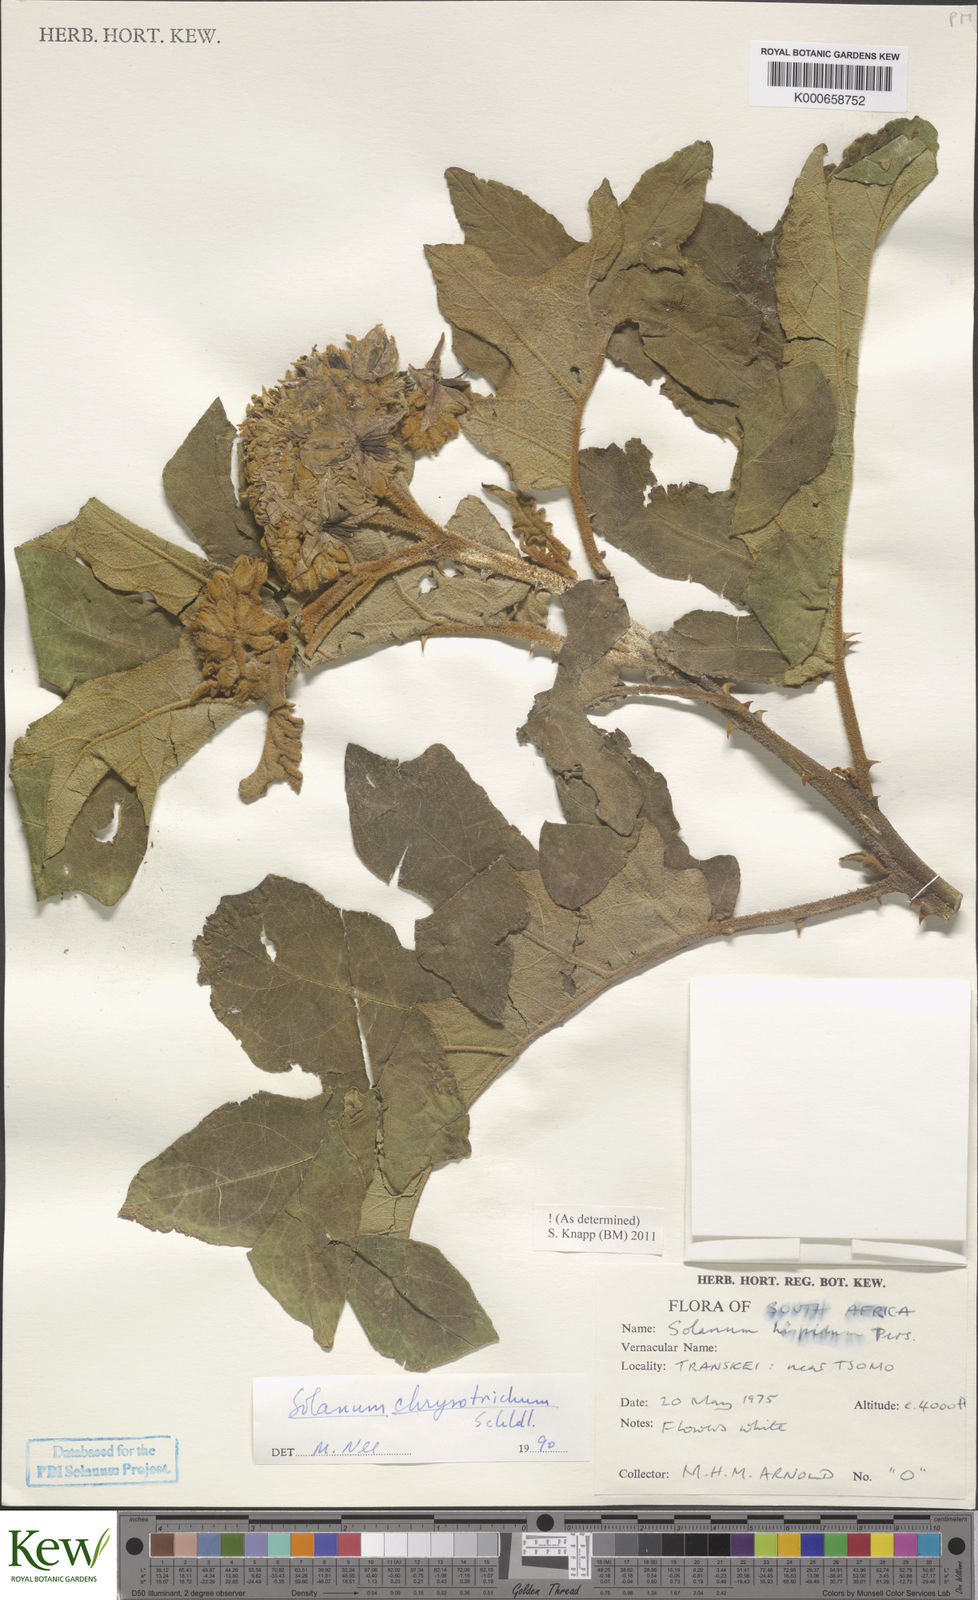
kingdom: Plantae
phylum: Tracheophyta
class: Magnoliopsida
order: Solanales
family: Solanaceae
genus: Solanum
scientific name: Solanum chrysotrichum
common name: Nightshade
